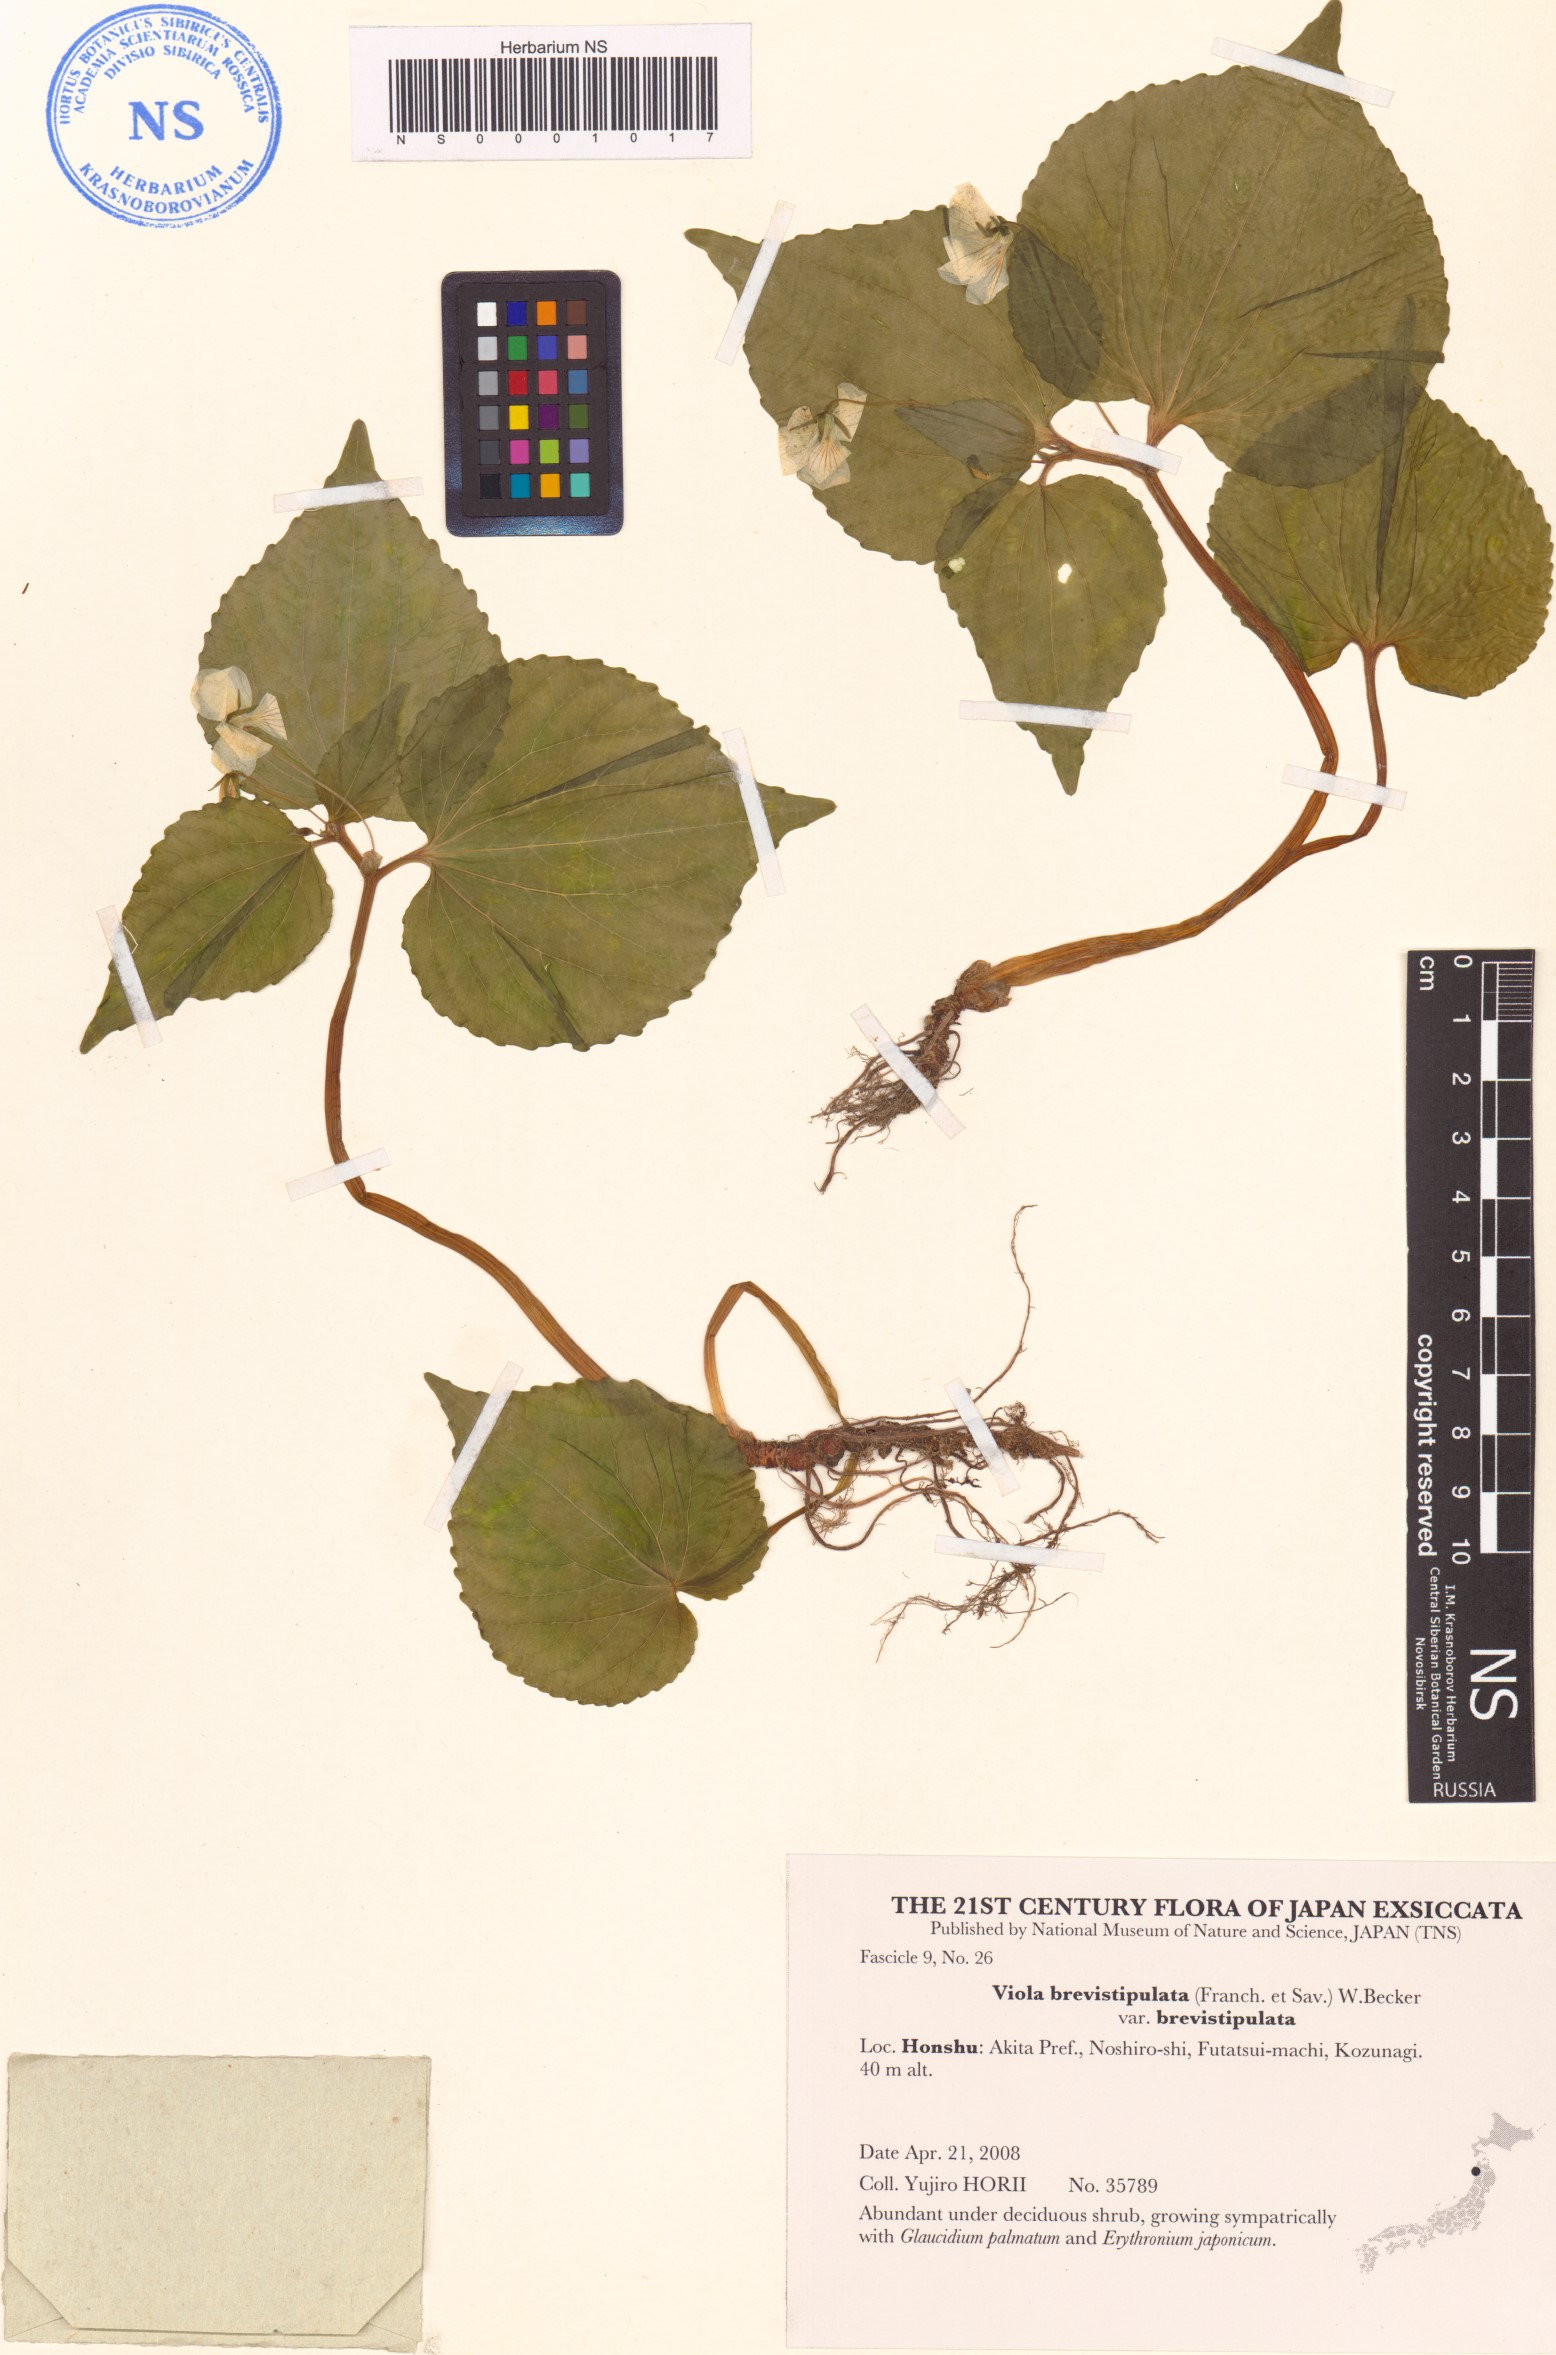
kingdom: Plantae
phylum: Tracheophyta
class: Magnoliopsida
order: Malpighiales
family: Violaceae
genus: Viola
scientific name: Viola brevistipulata
